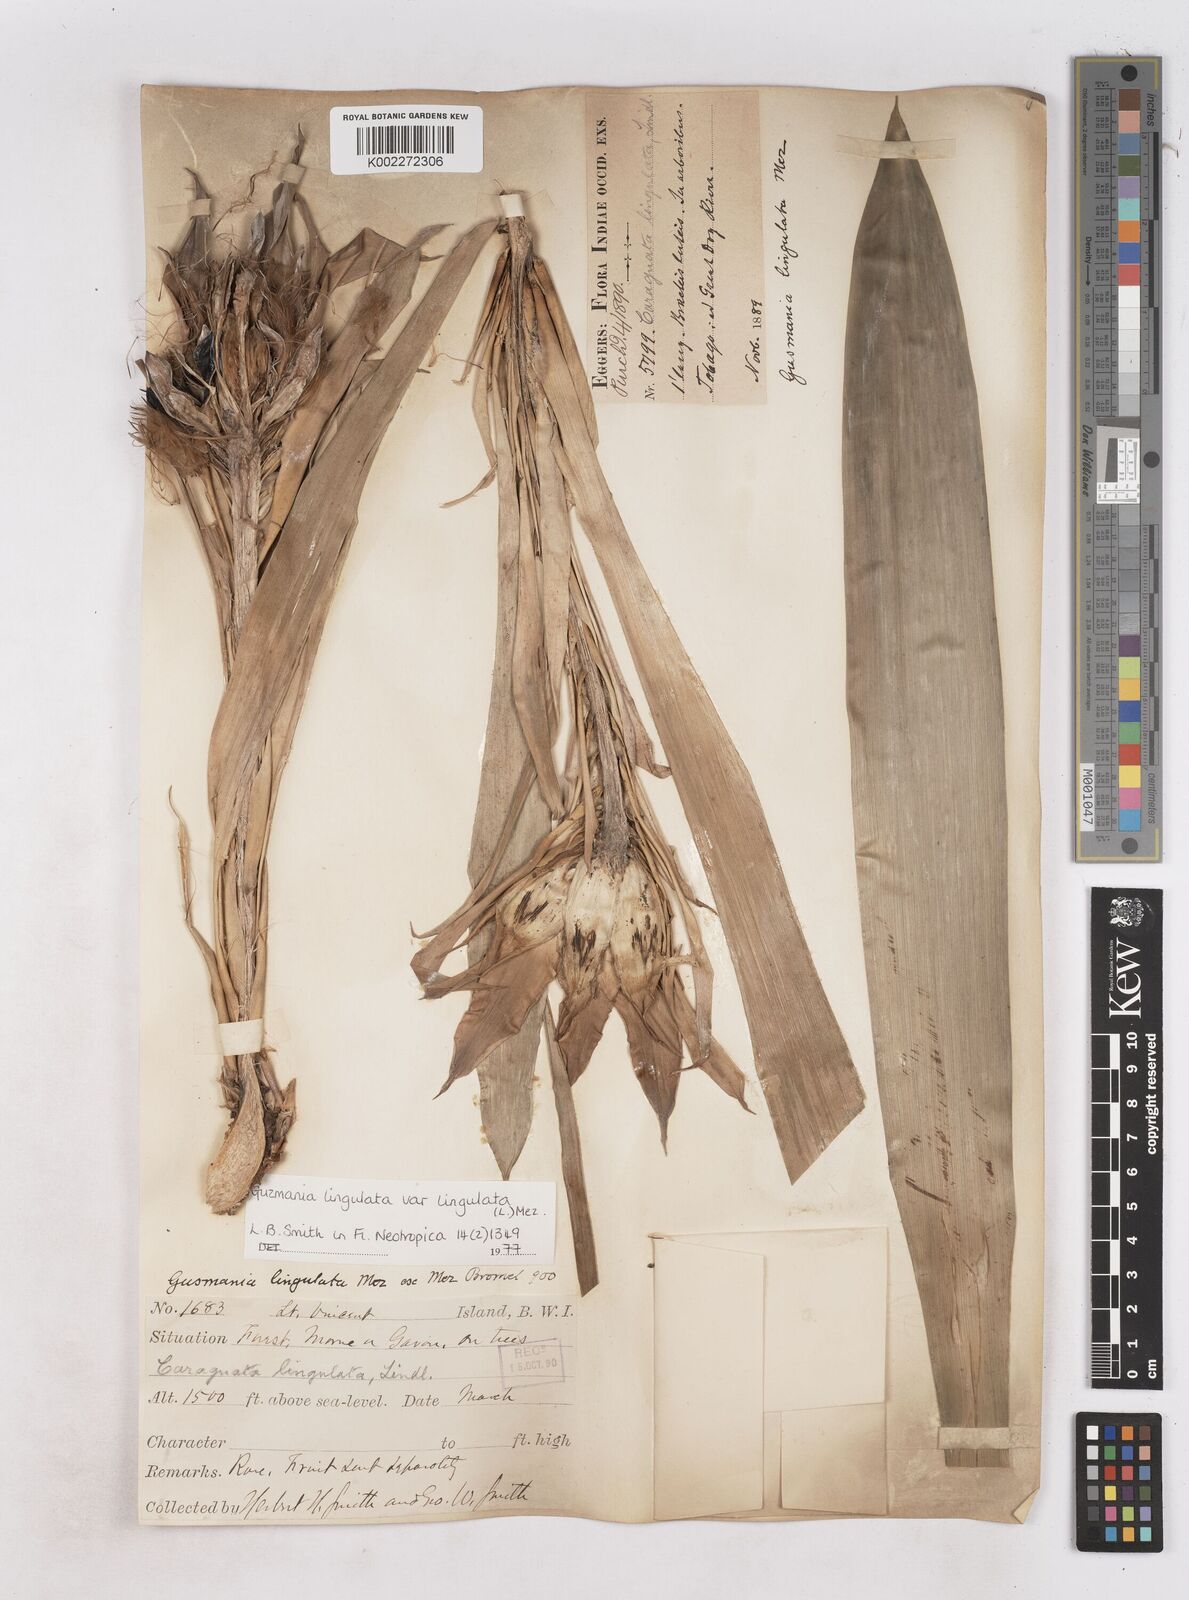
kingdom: Plantae
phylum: Tracheophyta
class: Liliopsida
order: Poales
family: Bromeliaceae
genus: Guzmania
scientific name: Guzmania lingulata
